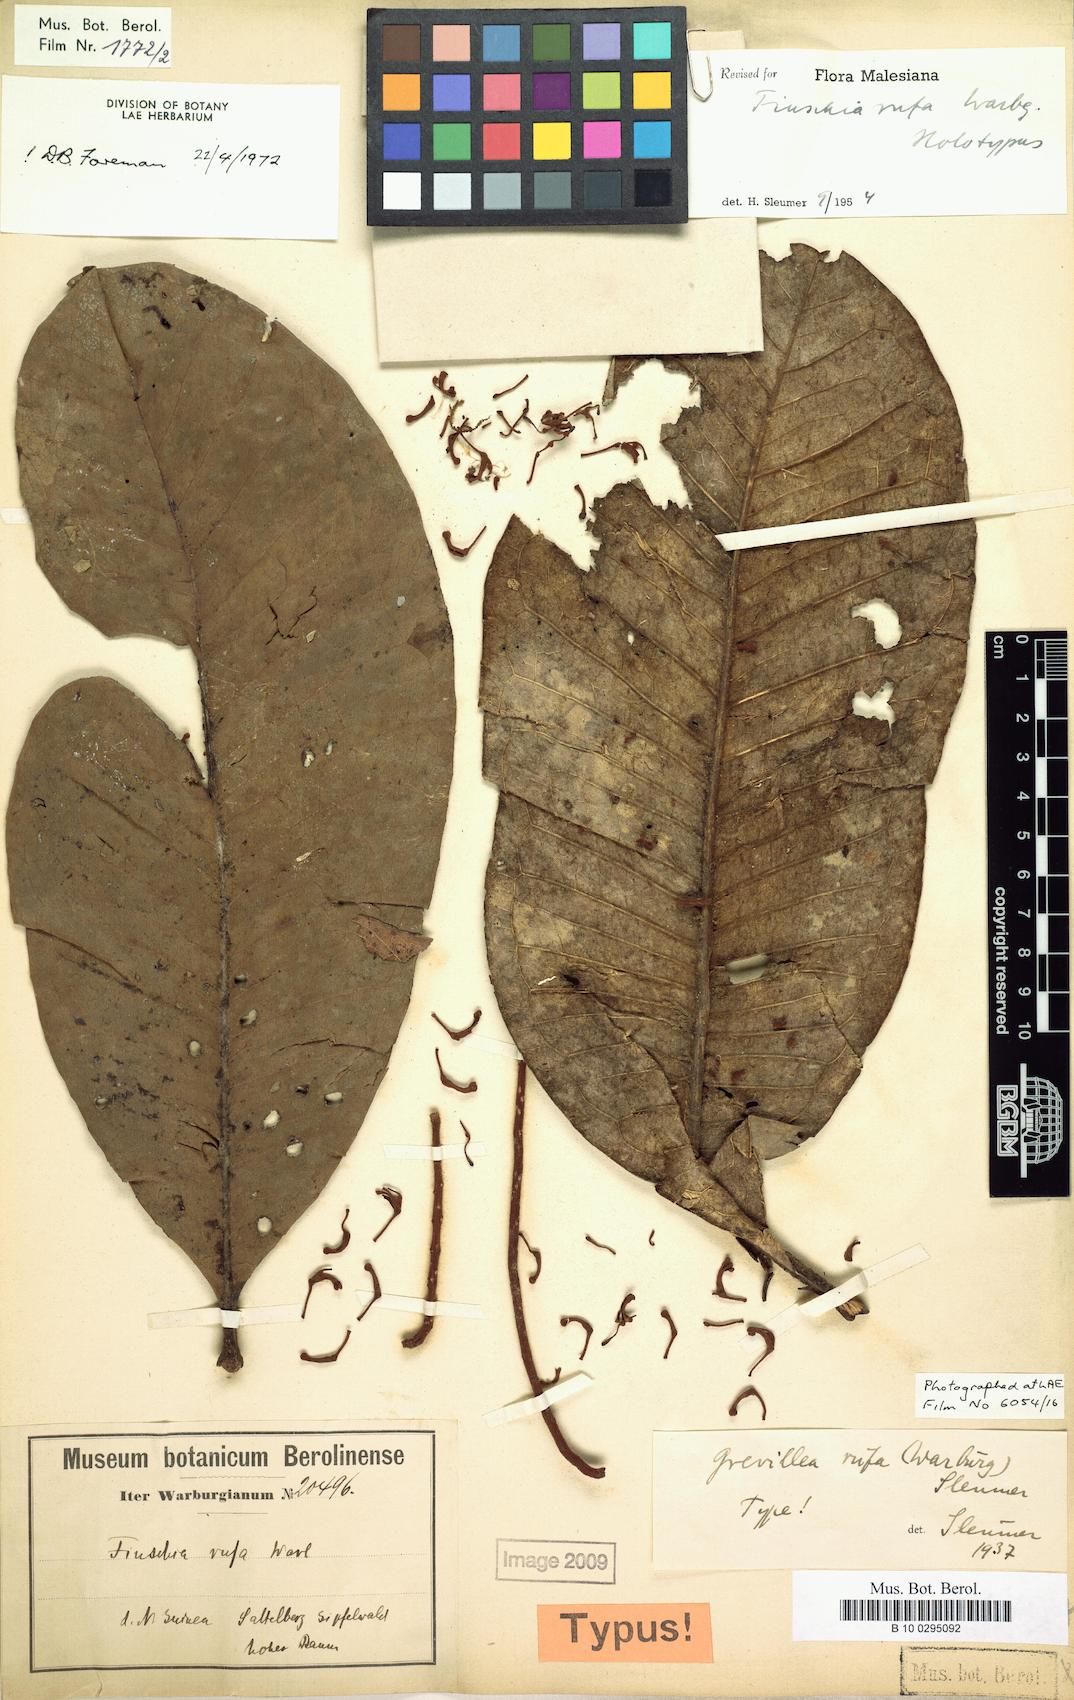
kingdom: Plantae
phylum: Tracheophyta
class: Magnoliopsida
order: Proteales
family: Proteaceae
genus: Finschia
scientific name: Finschia rufa
